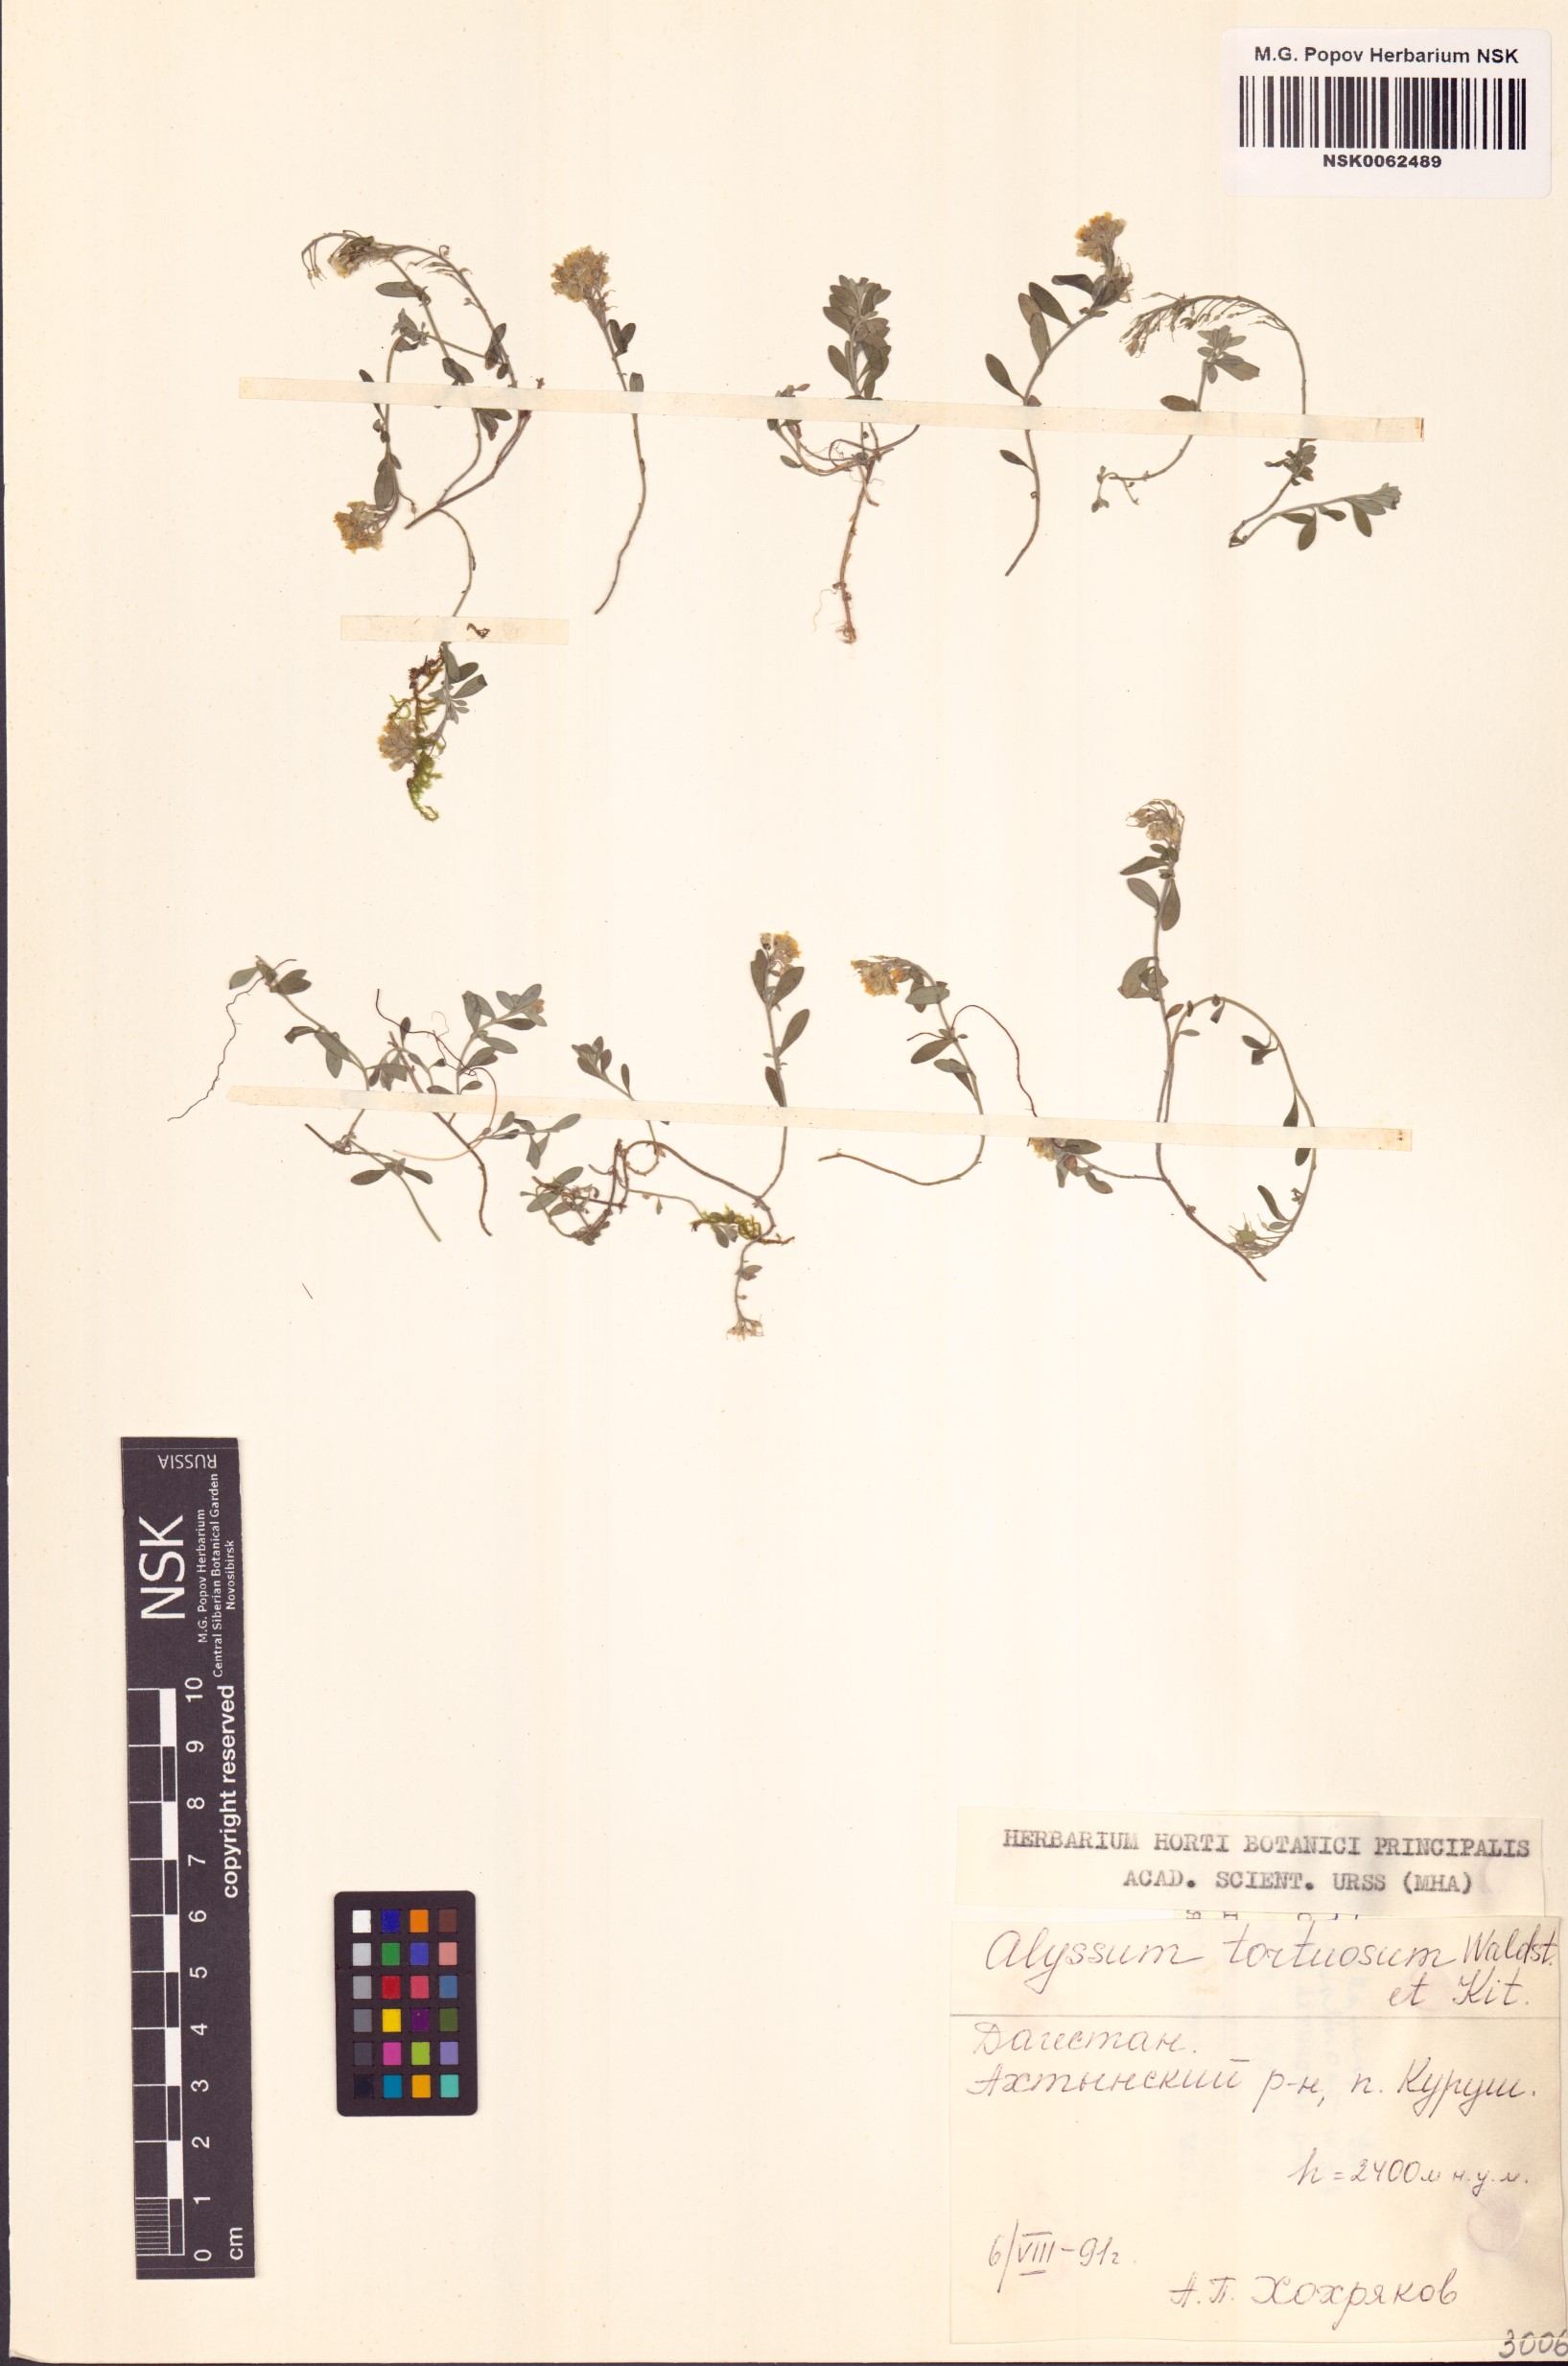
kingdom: Plantae
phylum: Tracheophyta
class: Magnoliopsida
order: Brassicales
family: Brassicaceae
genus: Odontarrhena
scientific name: Odontarrhena tortuosa
